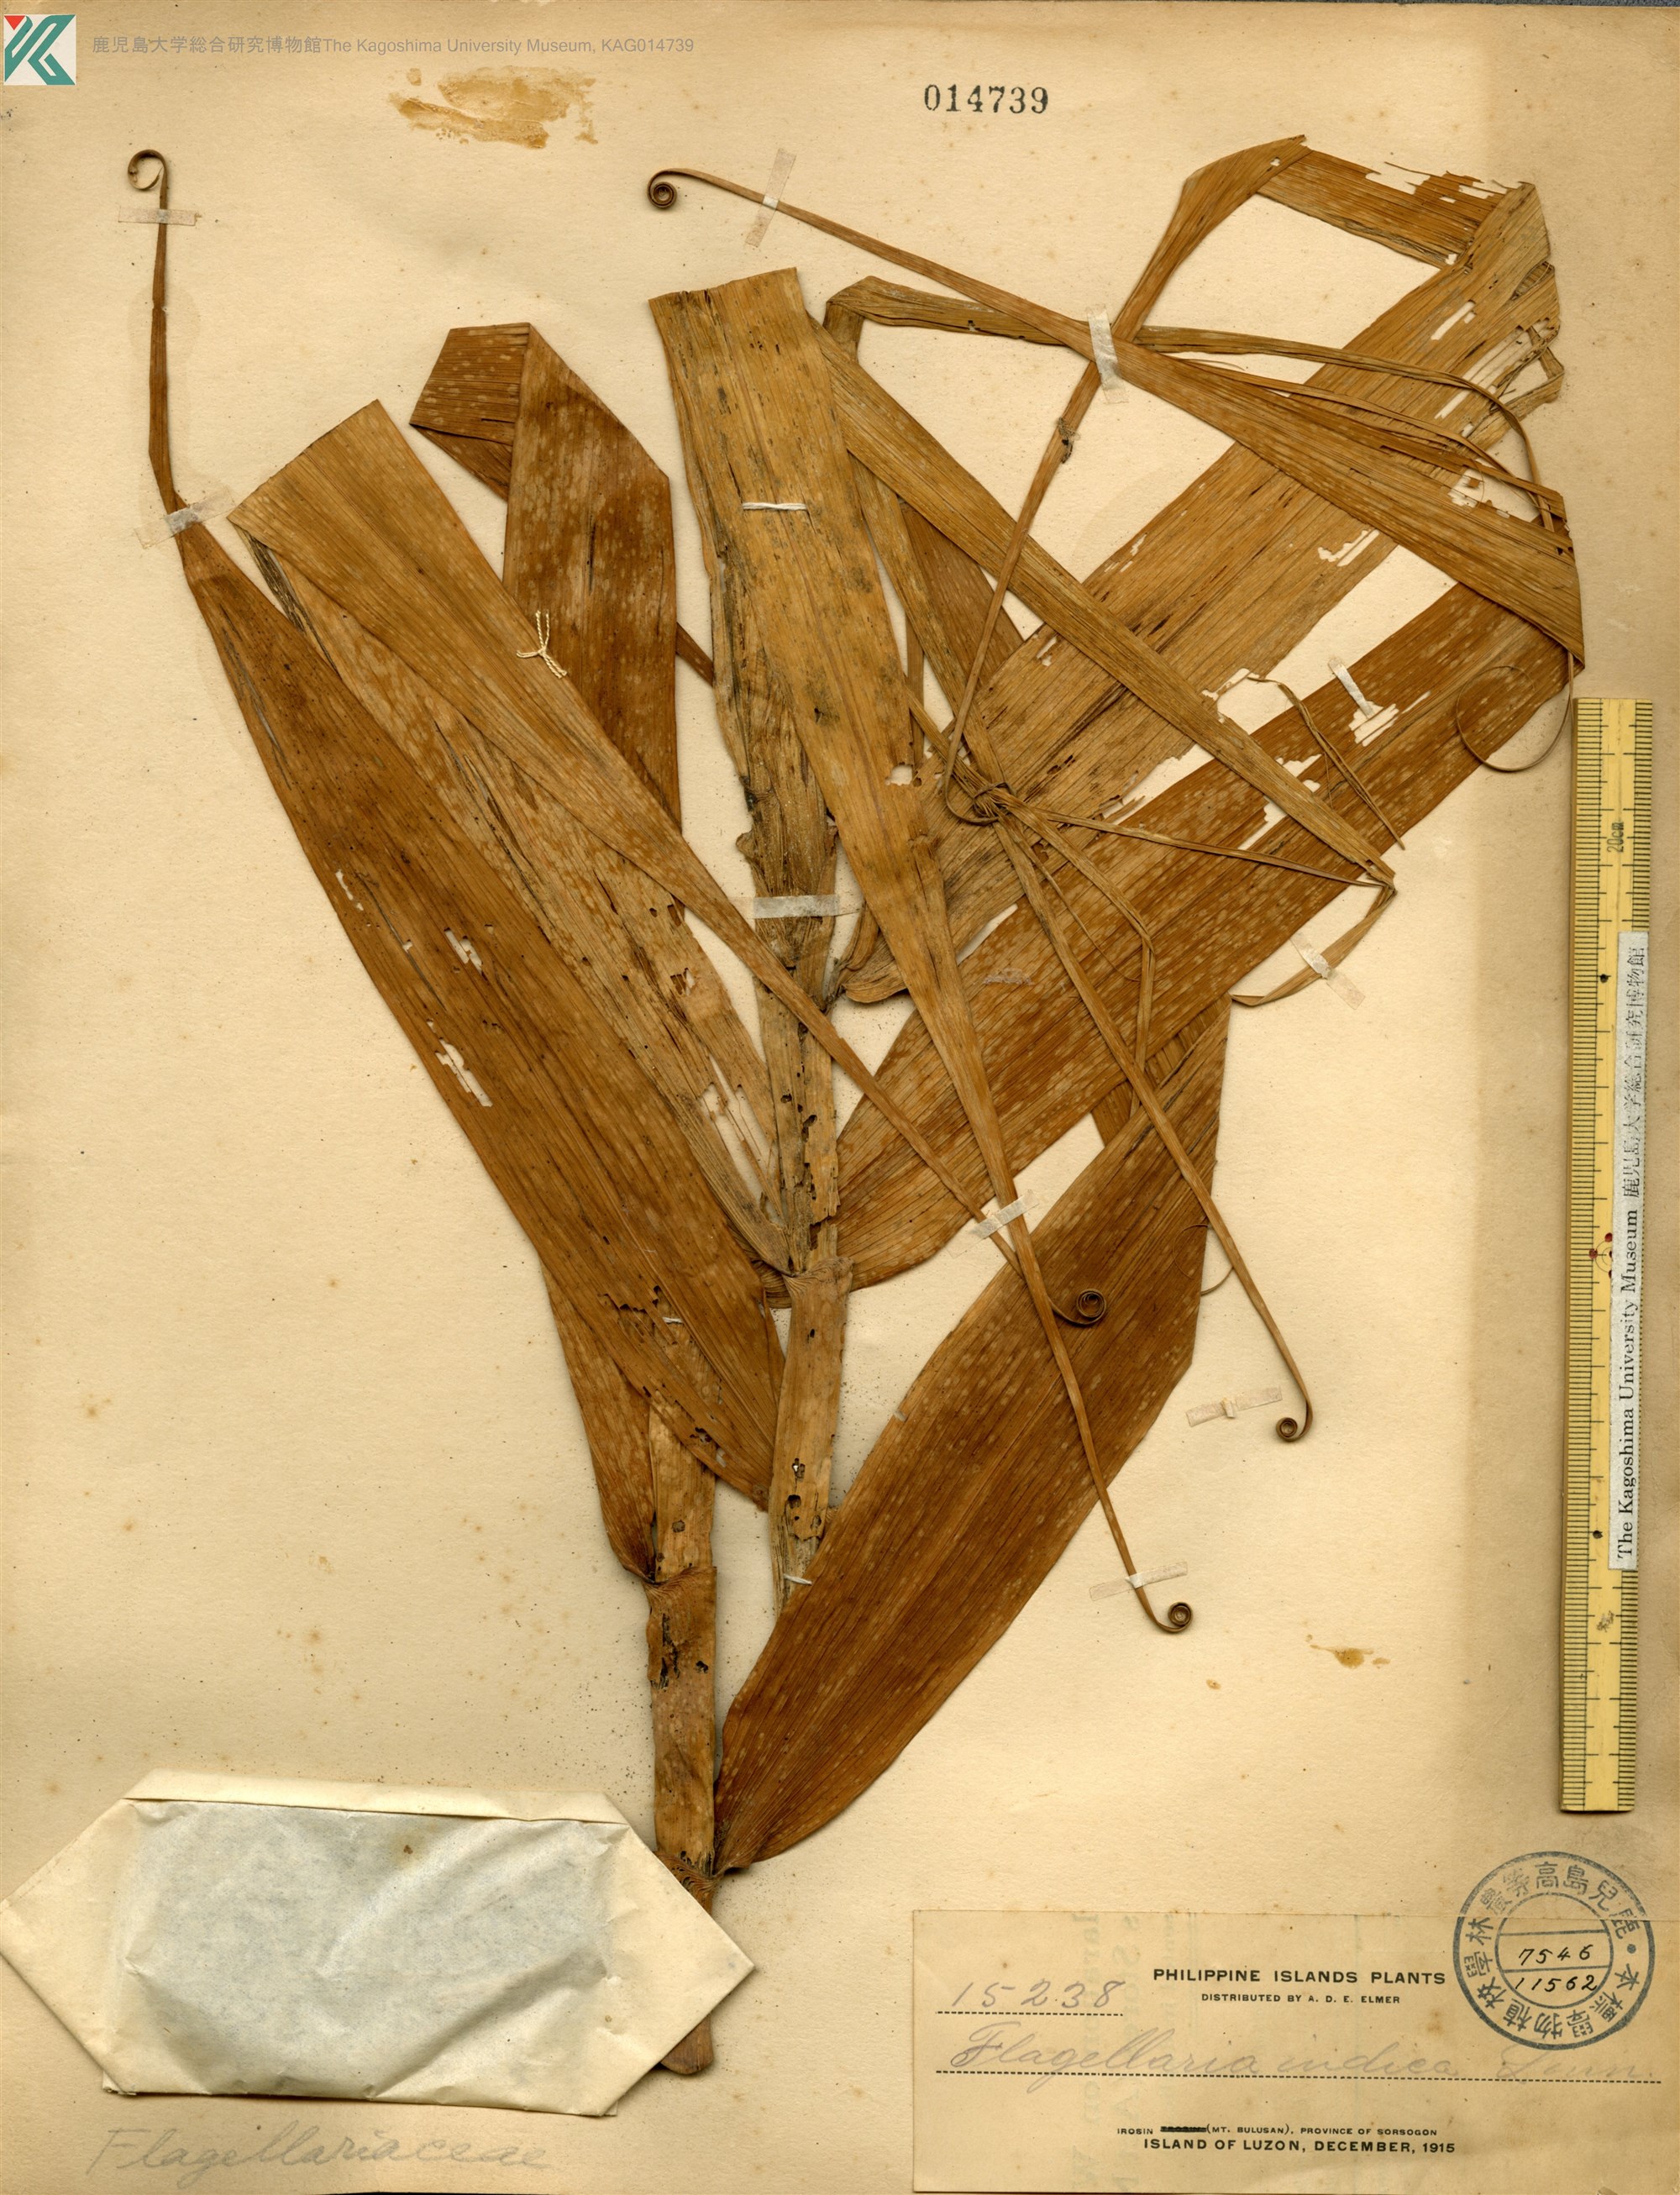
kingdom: Plantae
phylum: Tracheophyta
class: Liliopsida
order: Poales
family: Flagellariaceae
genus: Flagellaria
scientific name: Flagellaria indica
